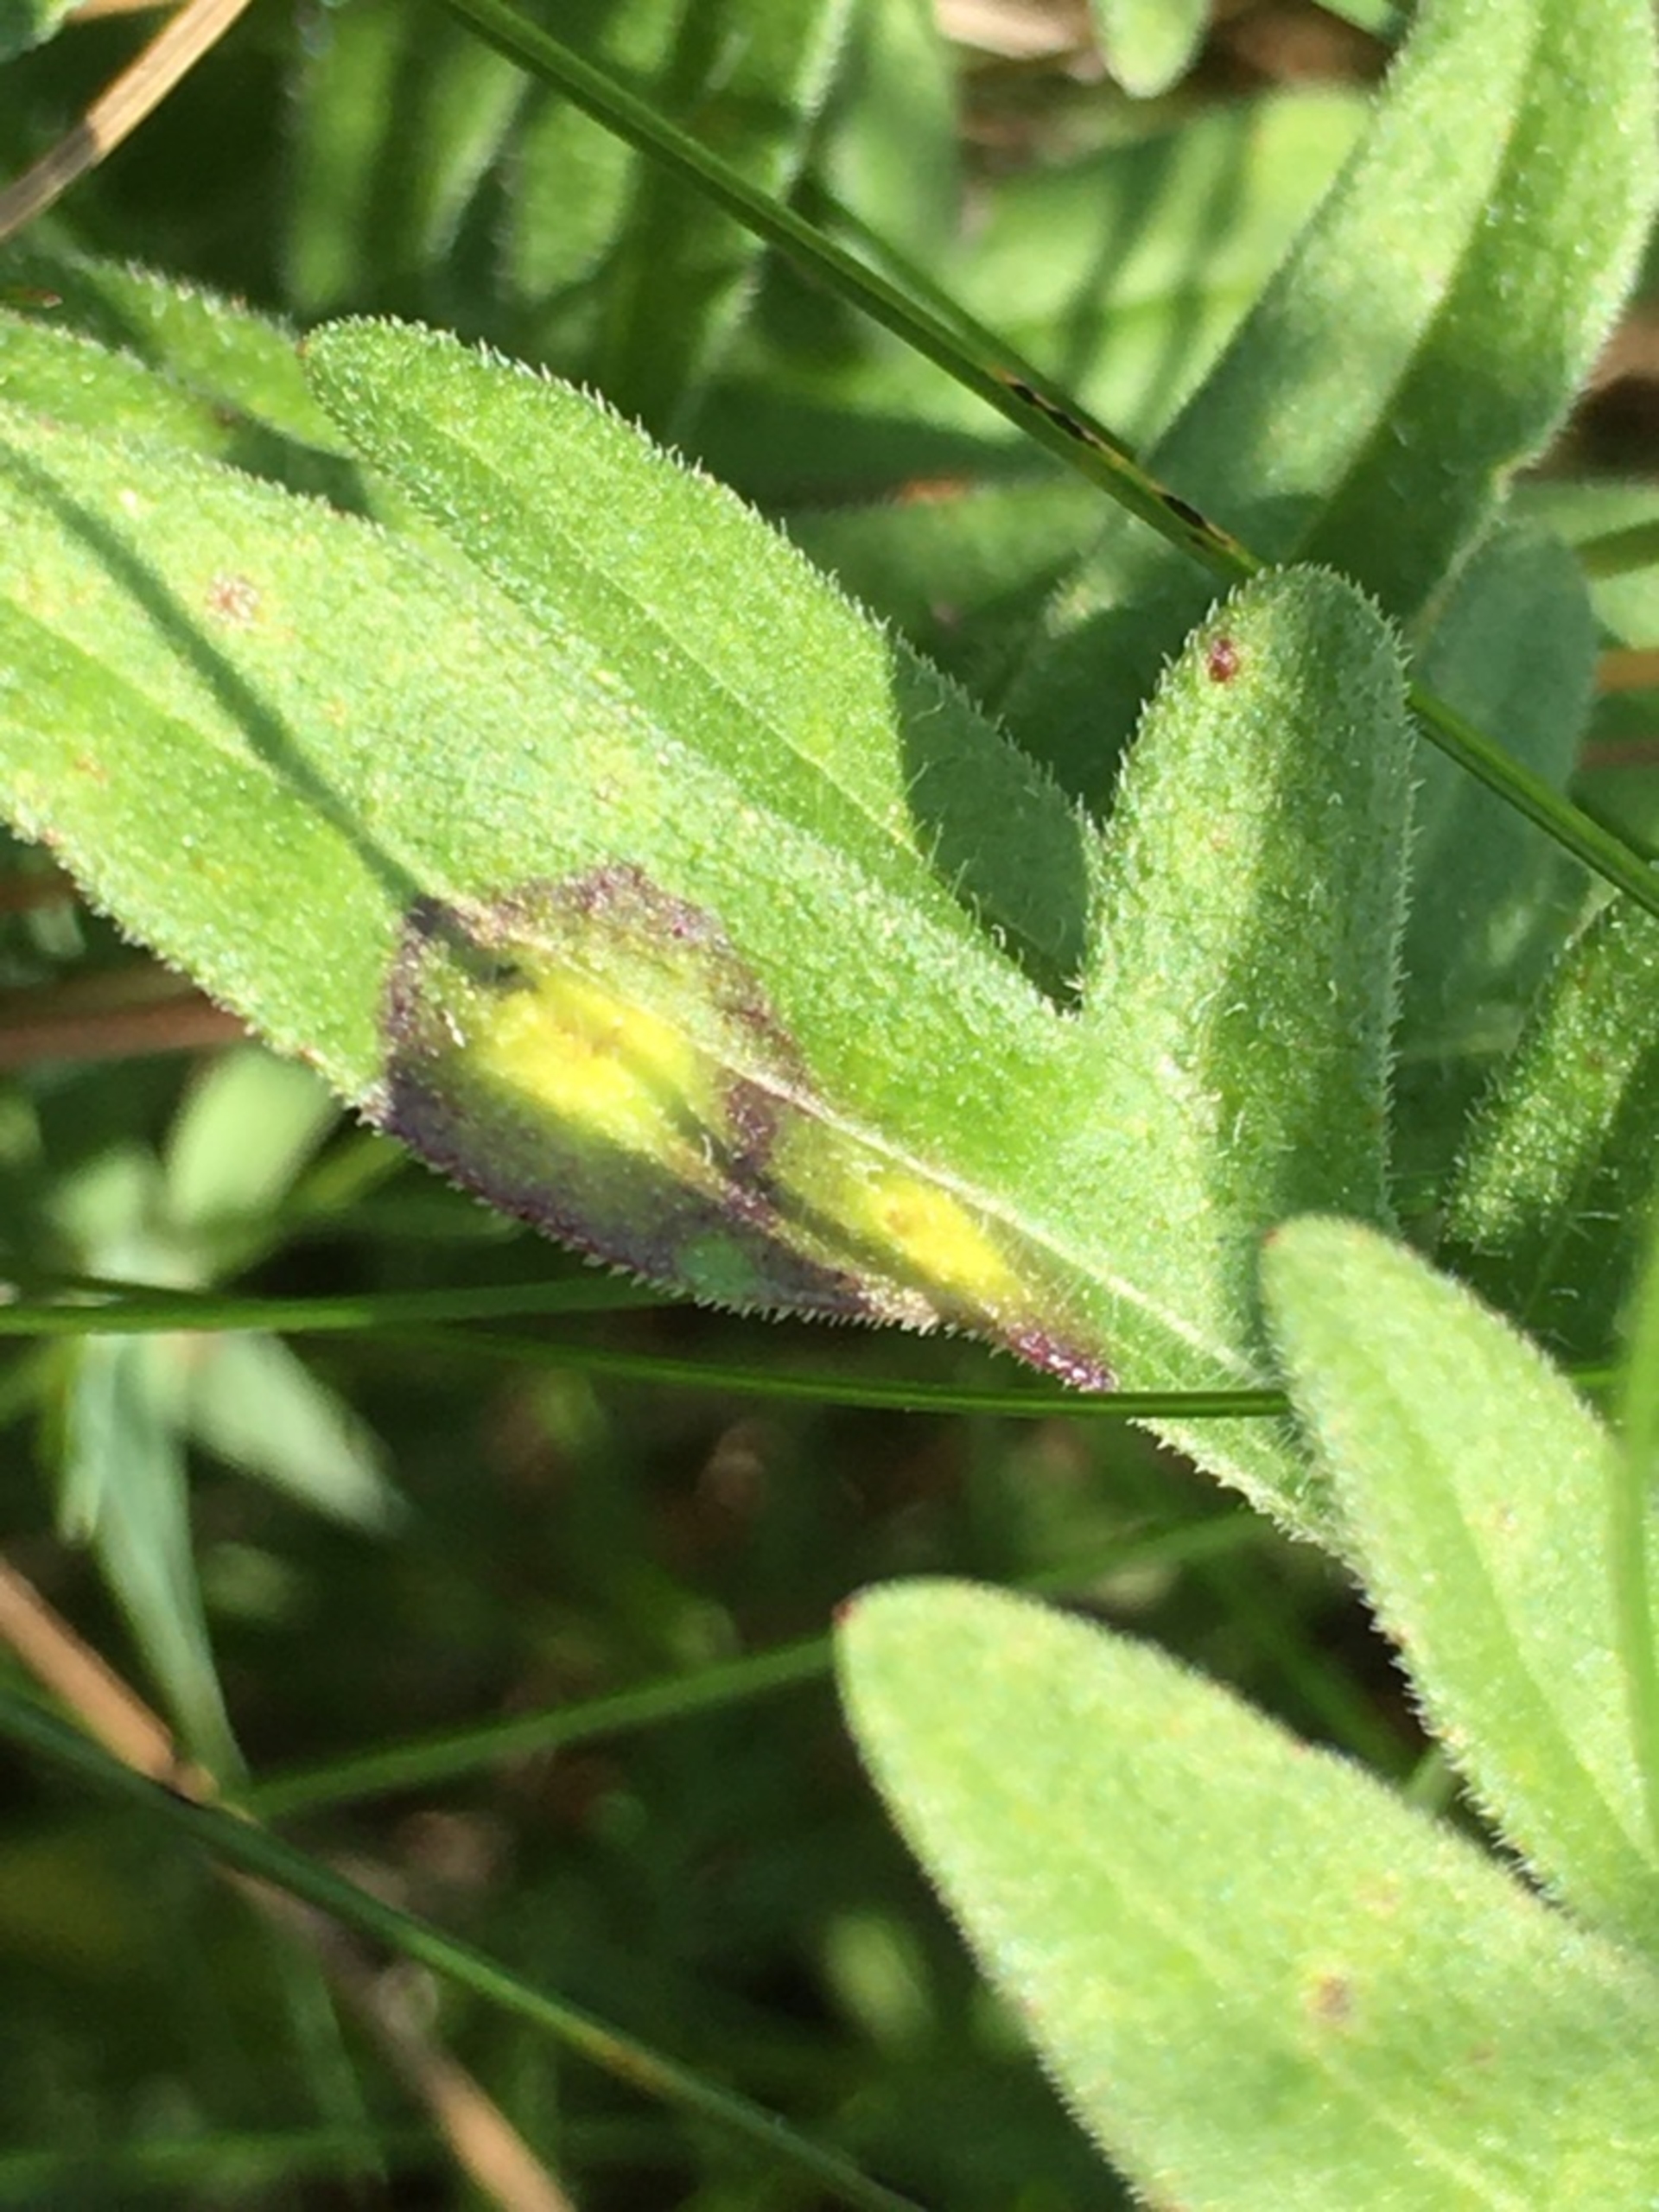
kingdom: Animalia
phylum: Arthropoda
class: Insecta
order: Diptera
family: Cecidomyiidae
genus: Loewiola
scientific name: Loewiola centaureae
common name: Knopurtblæregalmyg
